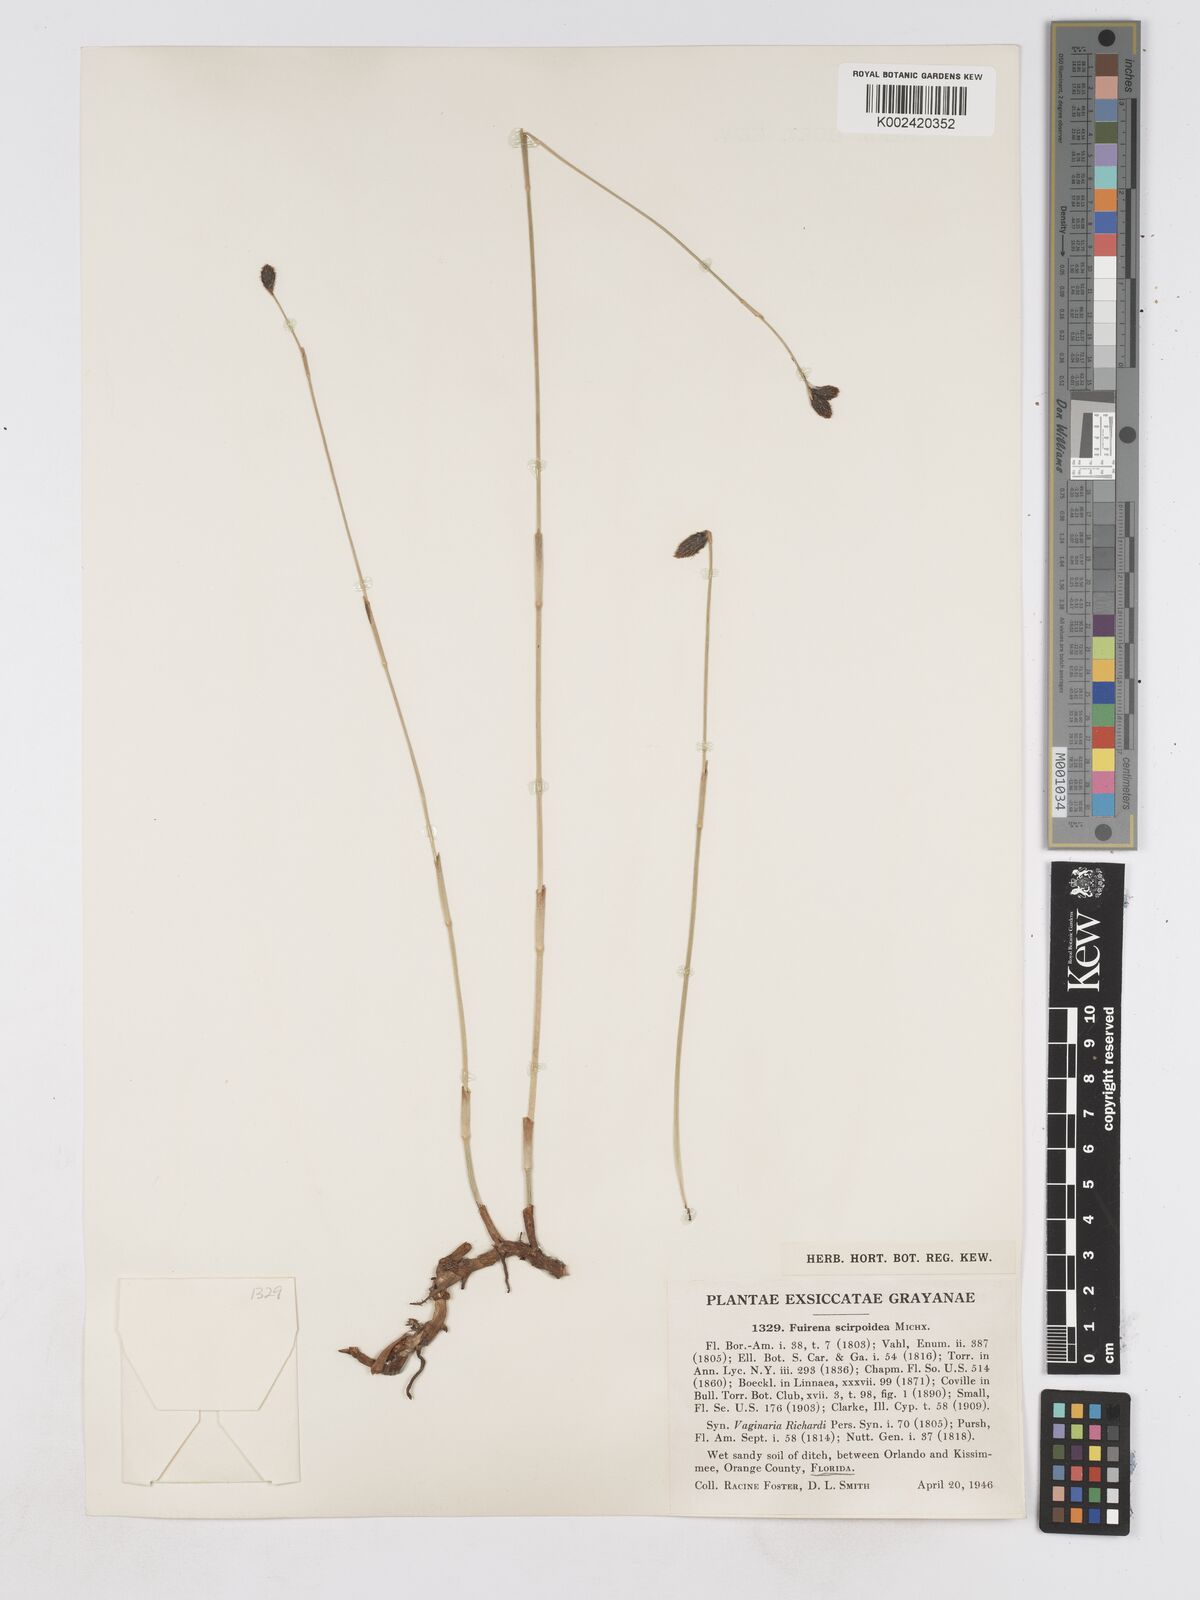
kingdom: Plantae
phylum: Tracheophyta
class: Liliopsida
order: Poales
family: Cyperaceae
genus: Fuirena
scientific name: Fuirena scirpoidea
